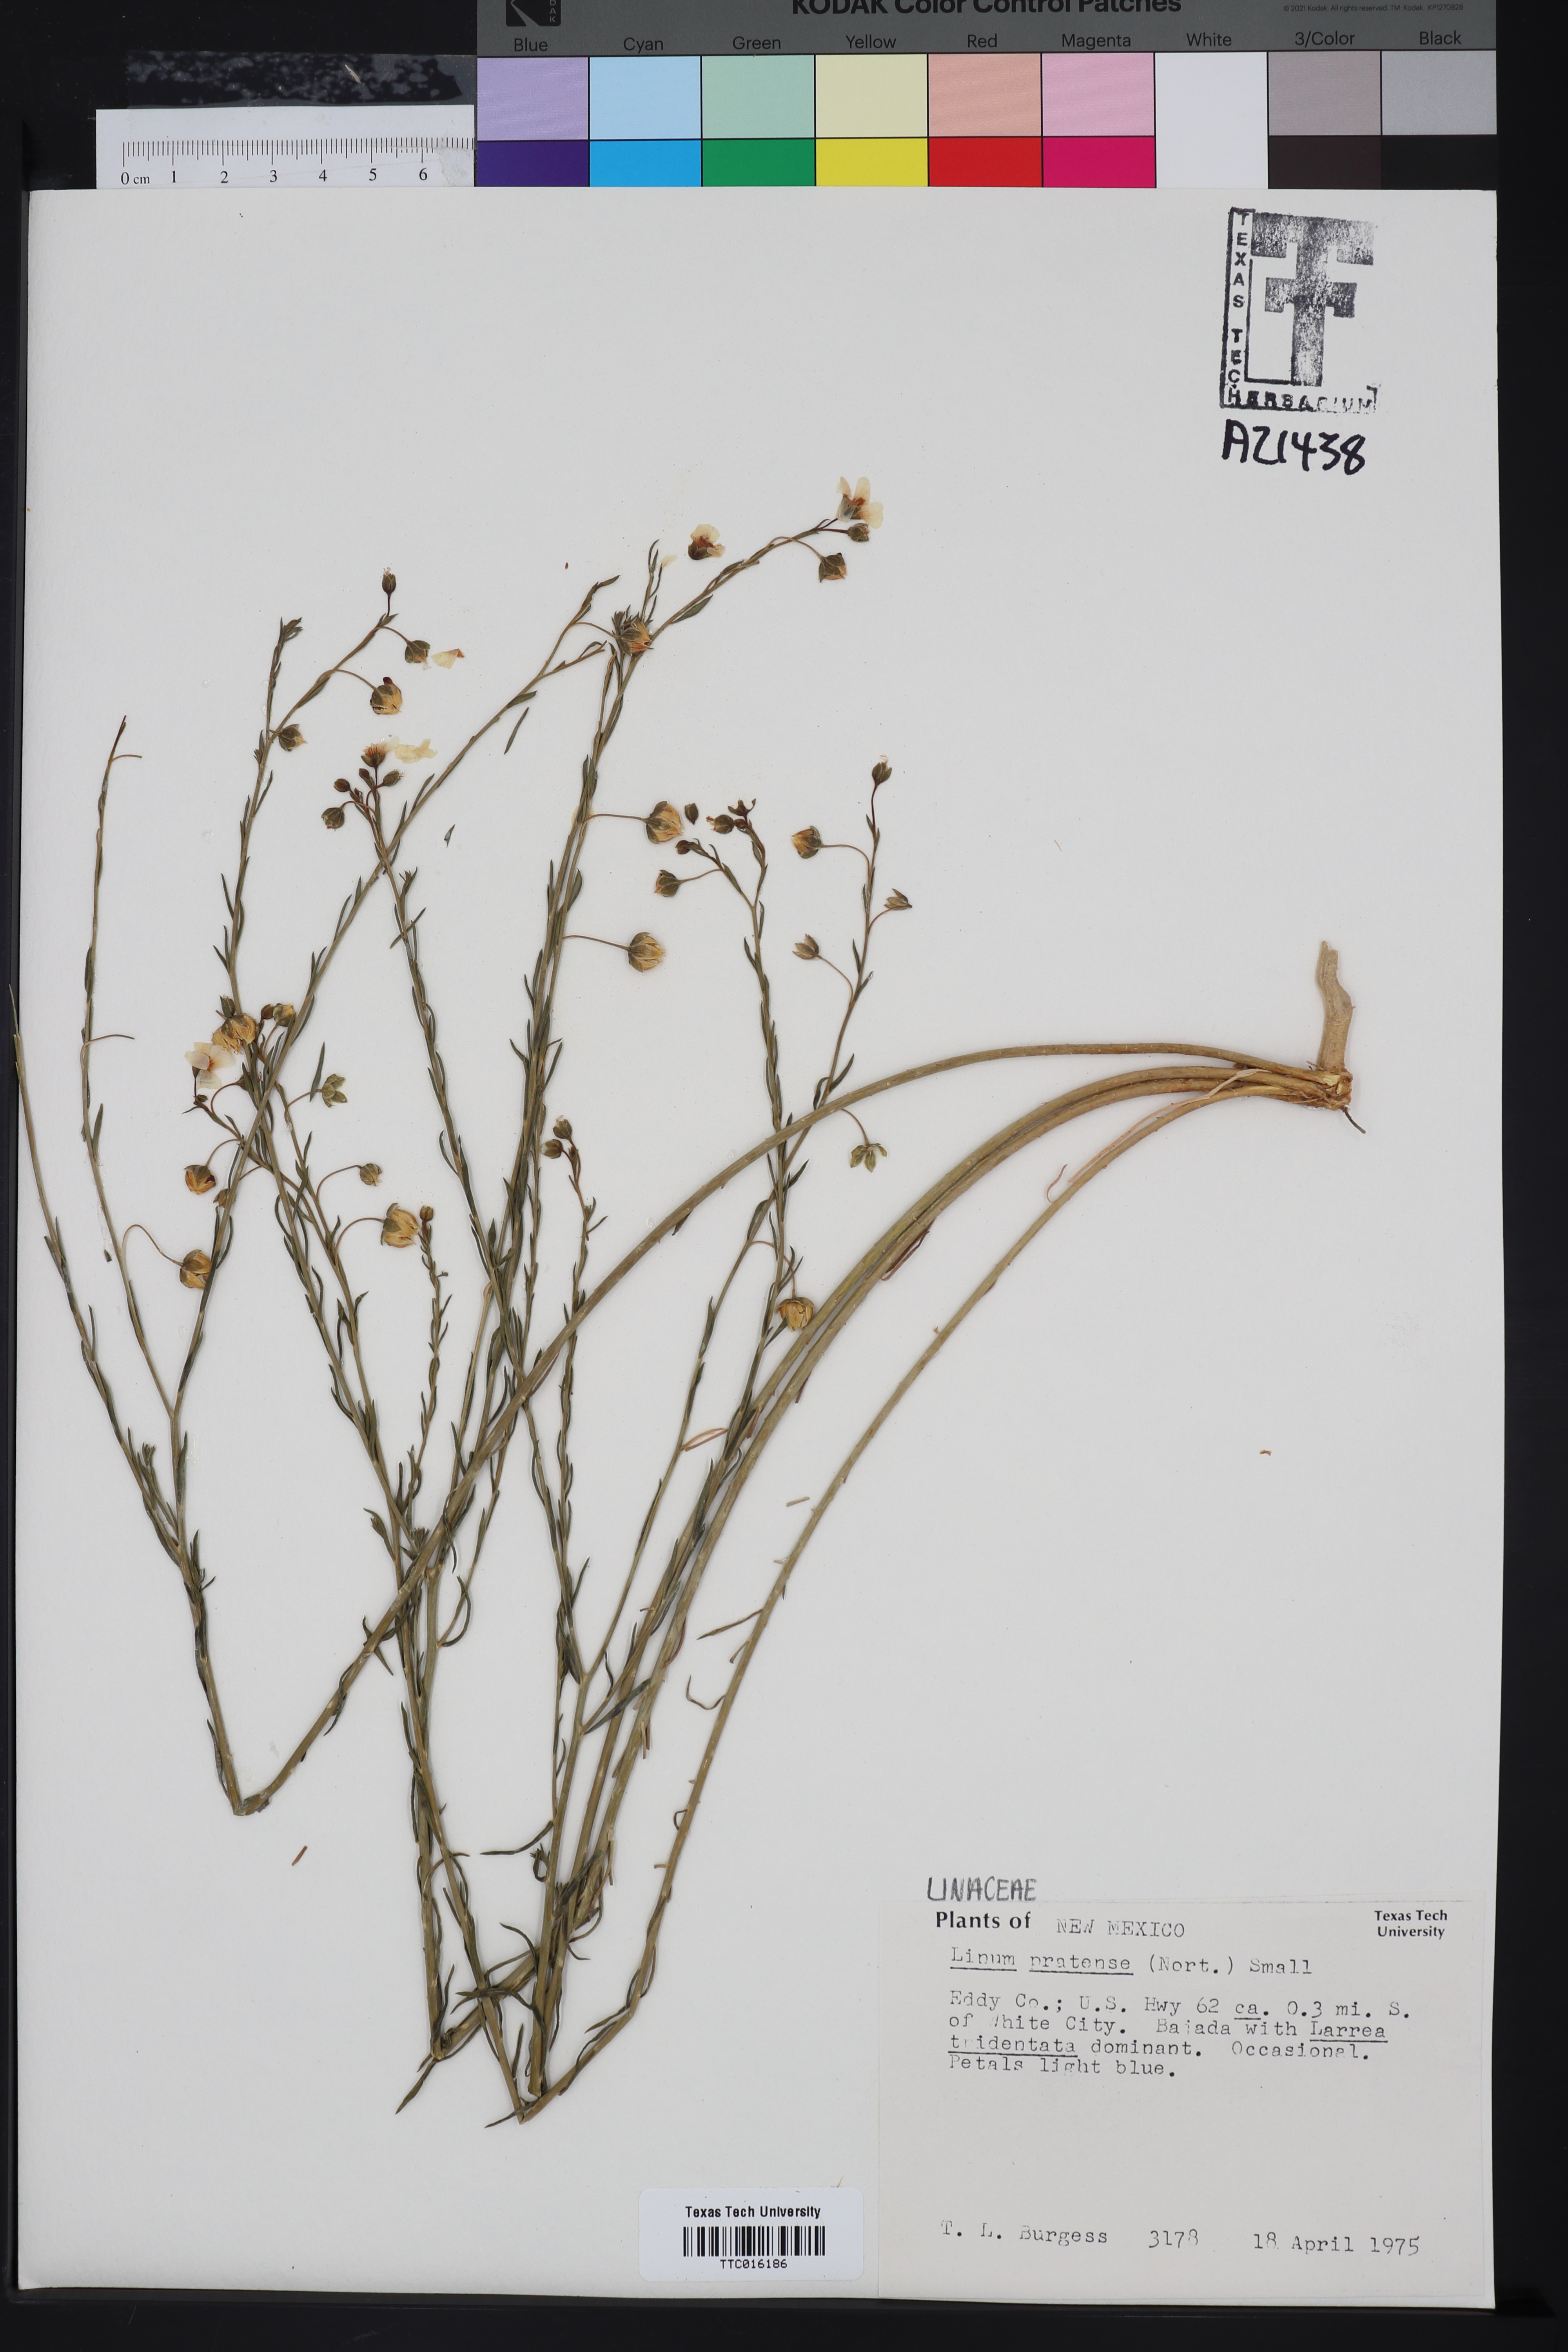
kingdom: Plantae
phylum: Tracheophyta
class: Magnoliopsida
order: Malpighiales
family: Linaceae
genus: Linum
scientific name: Linum pratense
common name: Norton's flax
